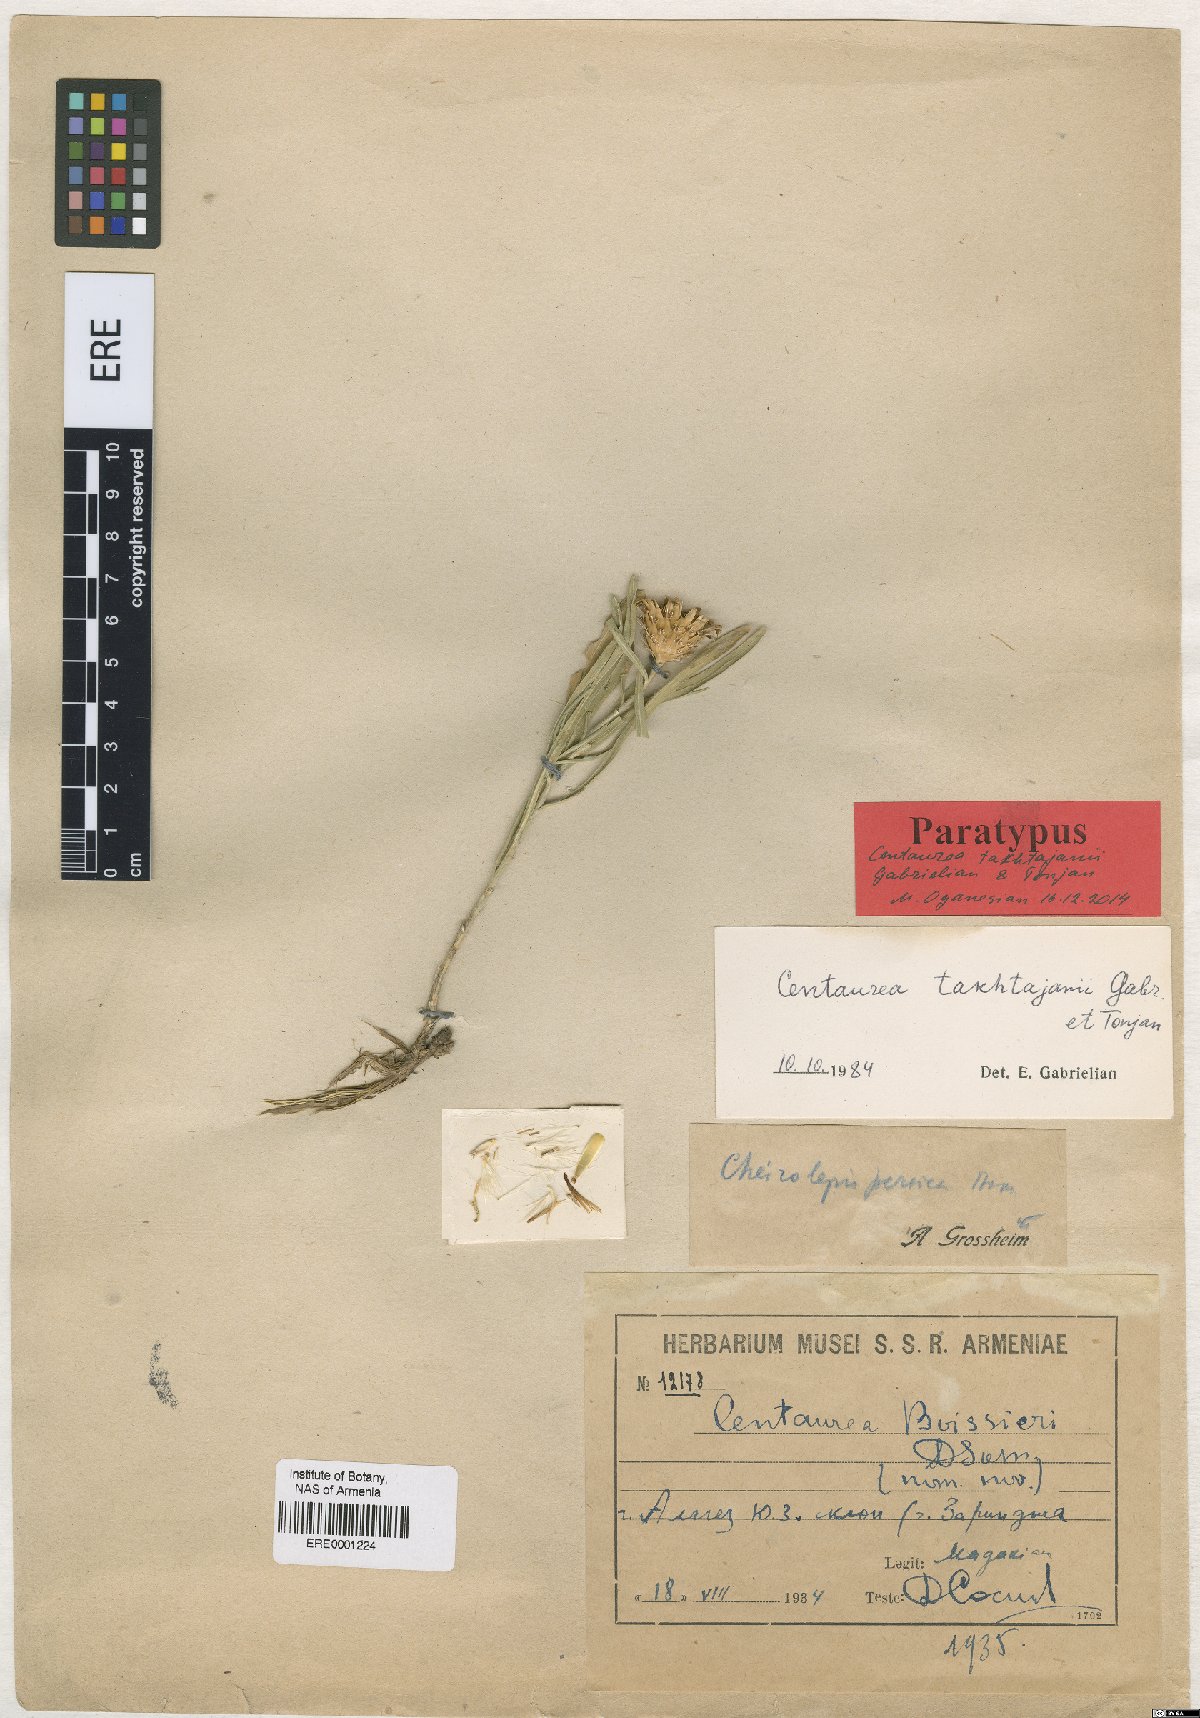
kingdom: Plantae
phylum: Tracheophyta
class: Magnoliopsida
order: Asterales
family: Asteraceae
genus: Centaurea
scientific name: Centaurea takhtajanii
